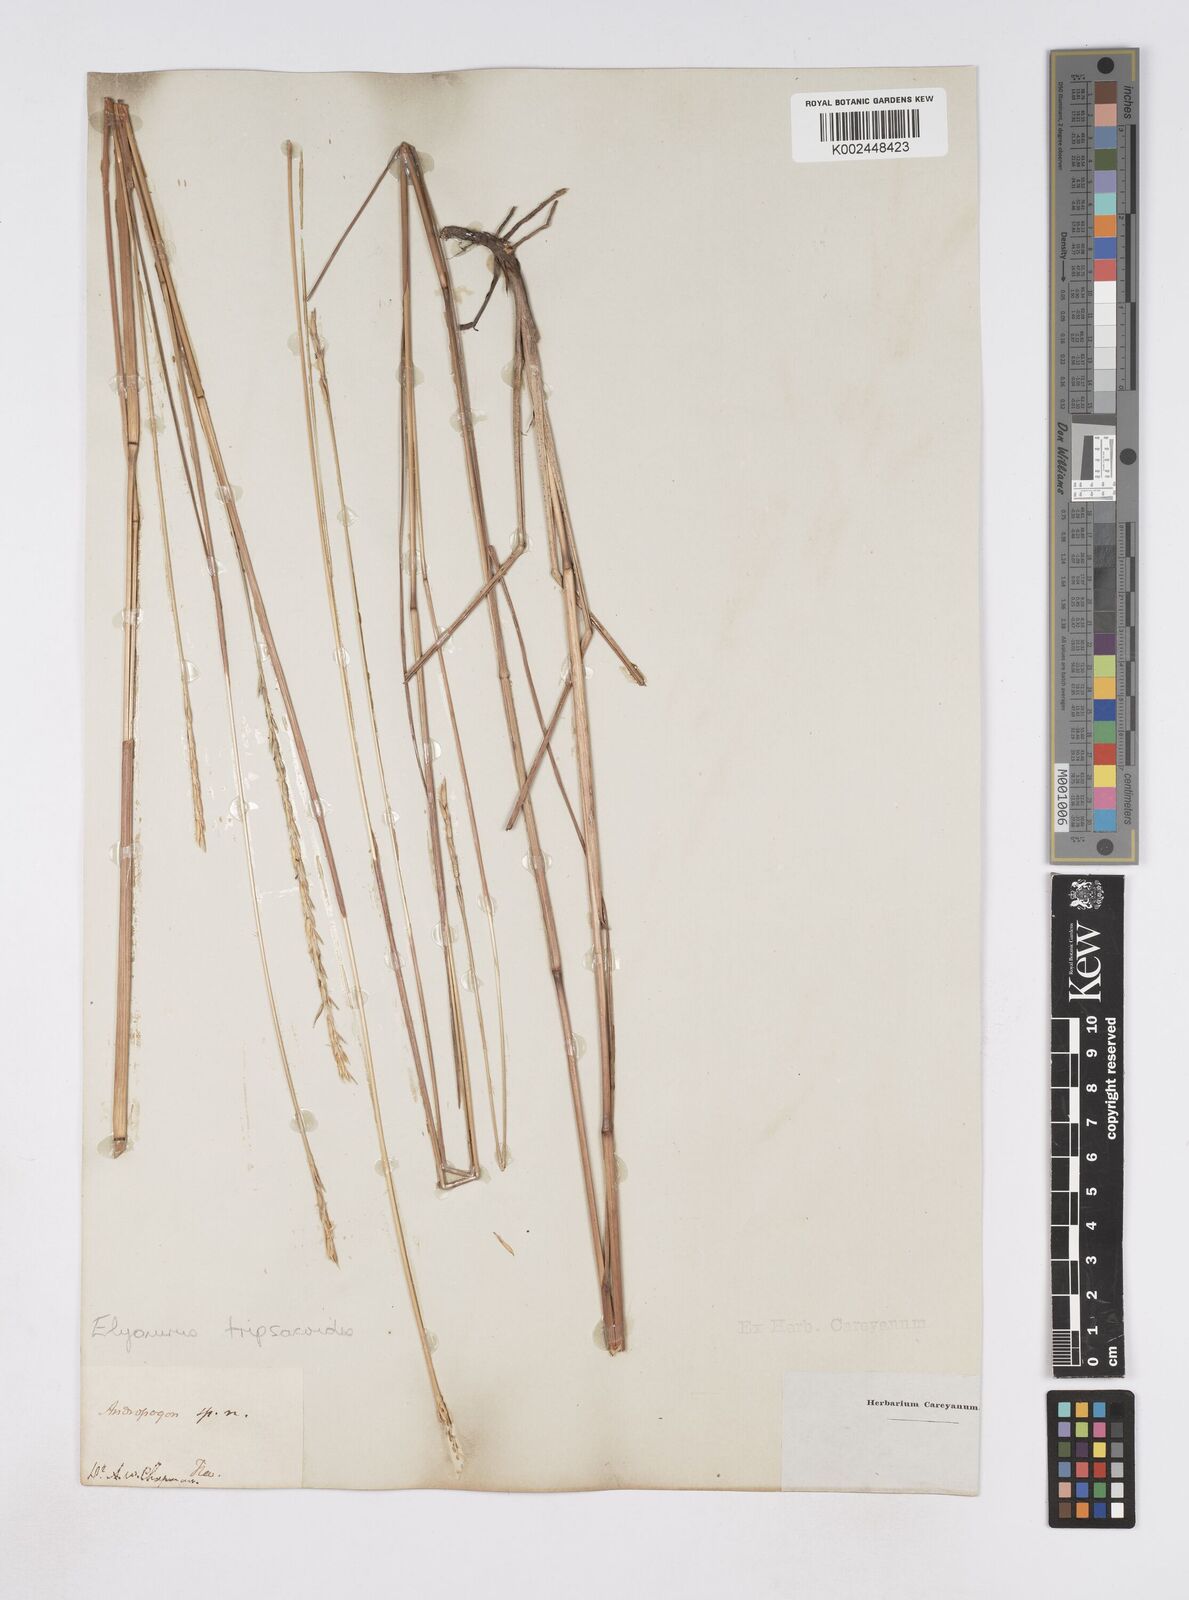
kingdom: Plantae
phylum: Tracheophyta
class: Liliopsida
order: Poales
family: Poaceae
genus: Elionurus
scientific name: Elionurus tripsacoides
